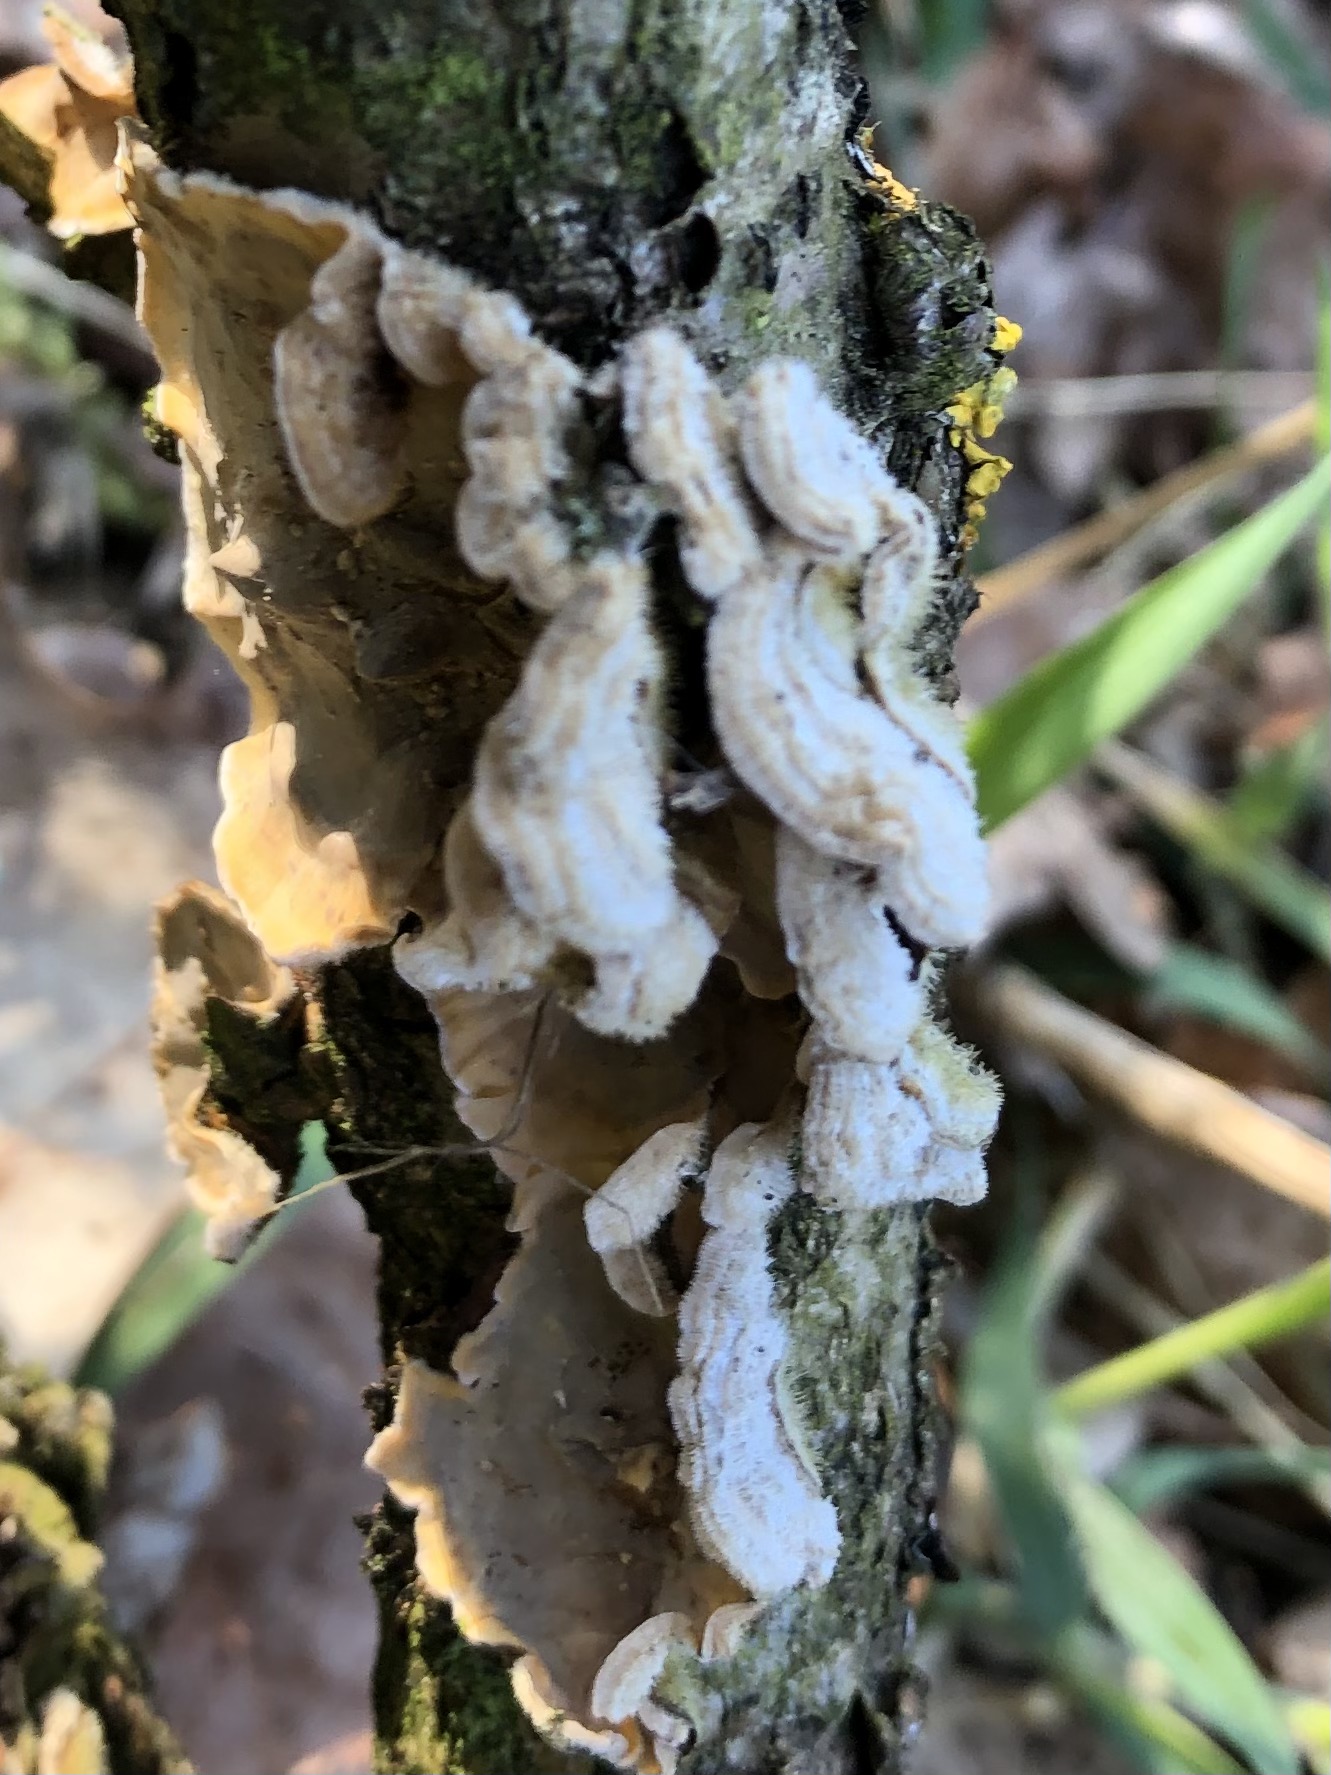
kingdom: Fungi
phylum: Basidiomycota
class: Agaricomycetes
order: Russulales
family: Stereaceae
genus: Stereum
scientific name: Stereum hirsutum
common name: håret lædersvamp
